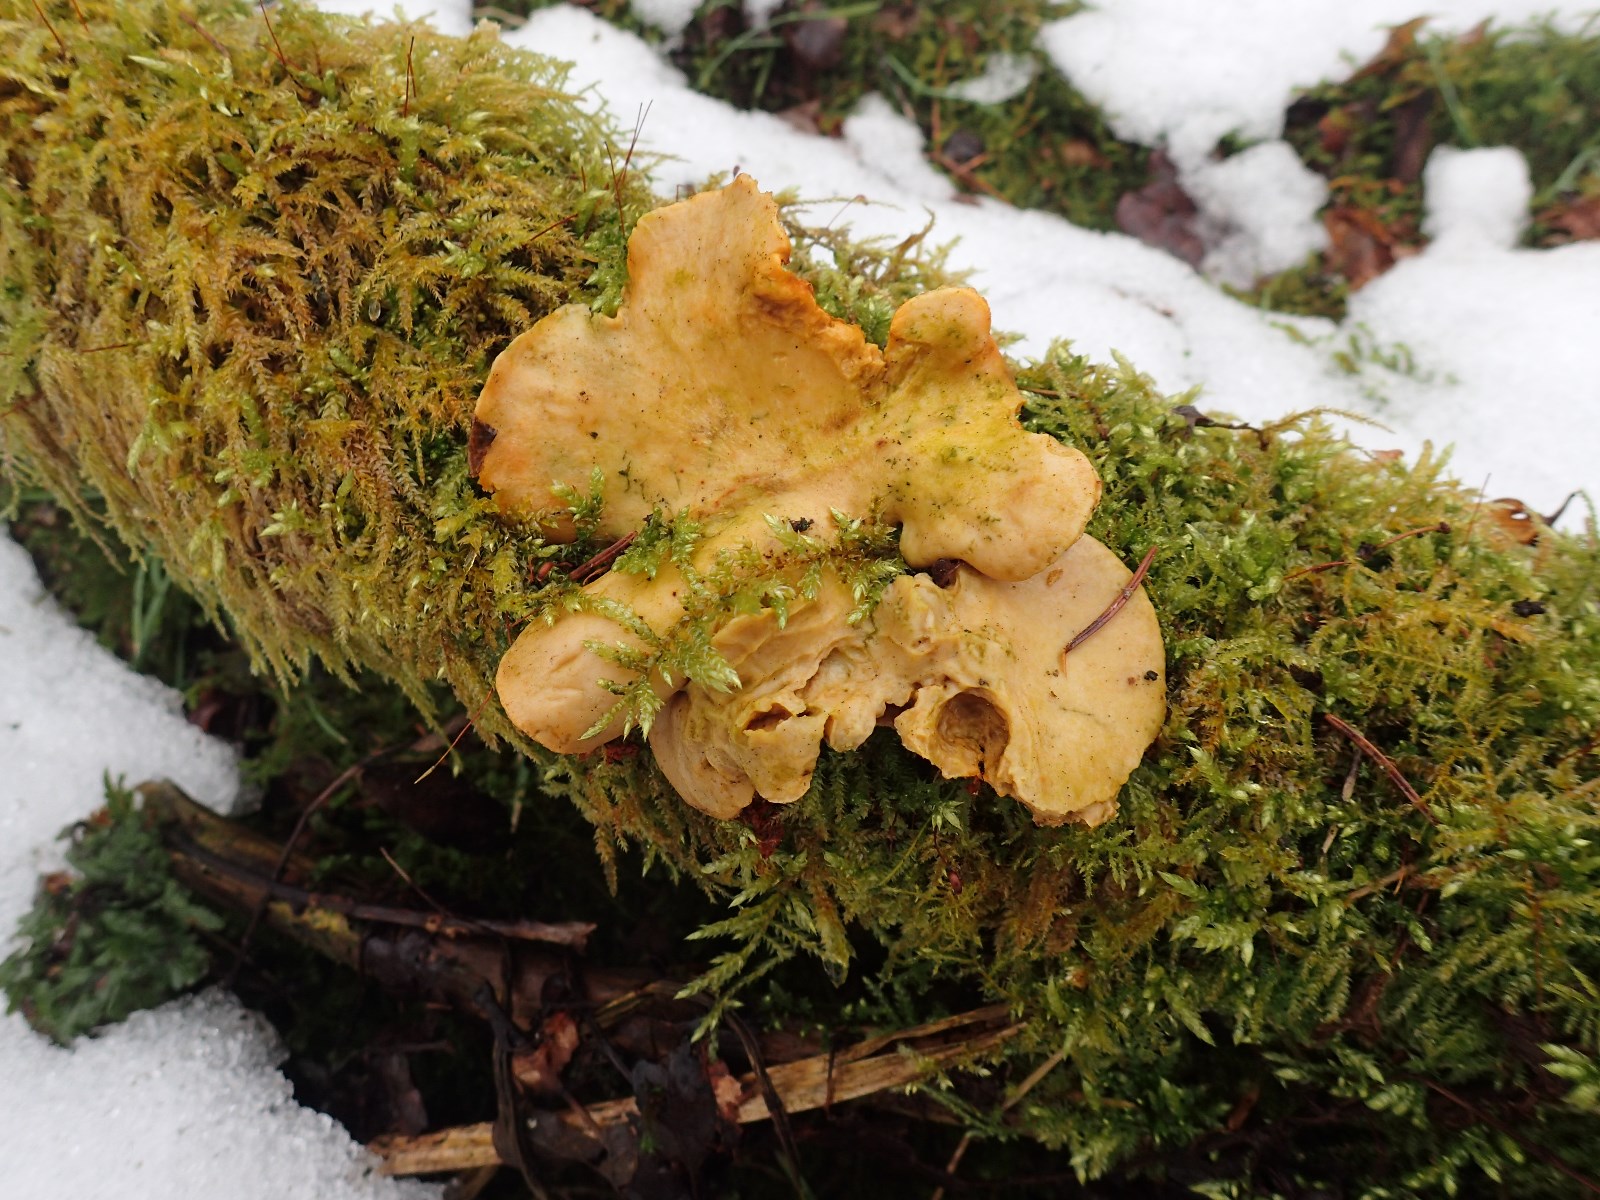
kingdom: Fungi
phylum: Basidiomycota
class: Agaricomycetes
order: Polyporales
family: Polyporaceae
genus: Cerioporus
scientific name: Cerioporus varius
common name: foranderlig stilkporesvamp
